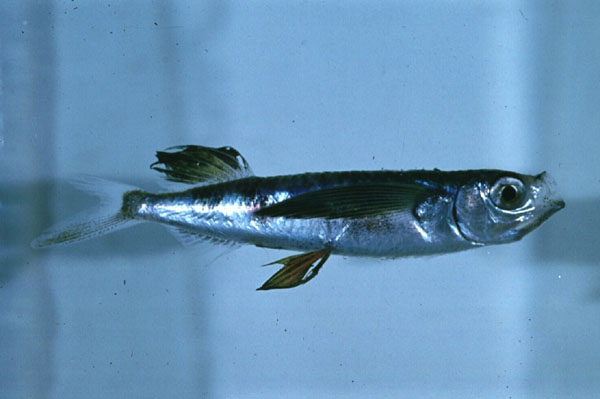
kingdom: Animalia
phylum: Chordata
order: Beloniformes
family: Exocoetidae
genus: Parexocoetus
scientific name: Parexocoetus mento
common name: African sailfin flyingfish
